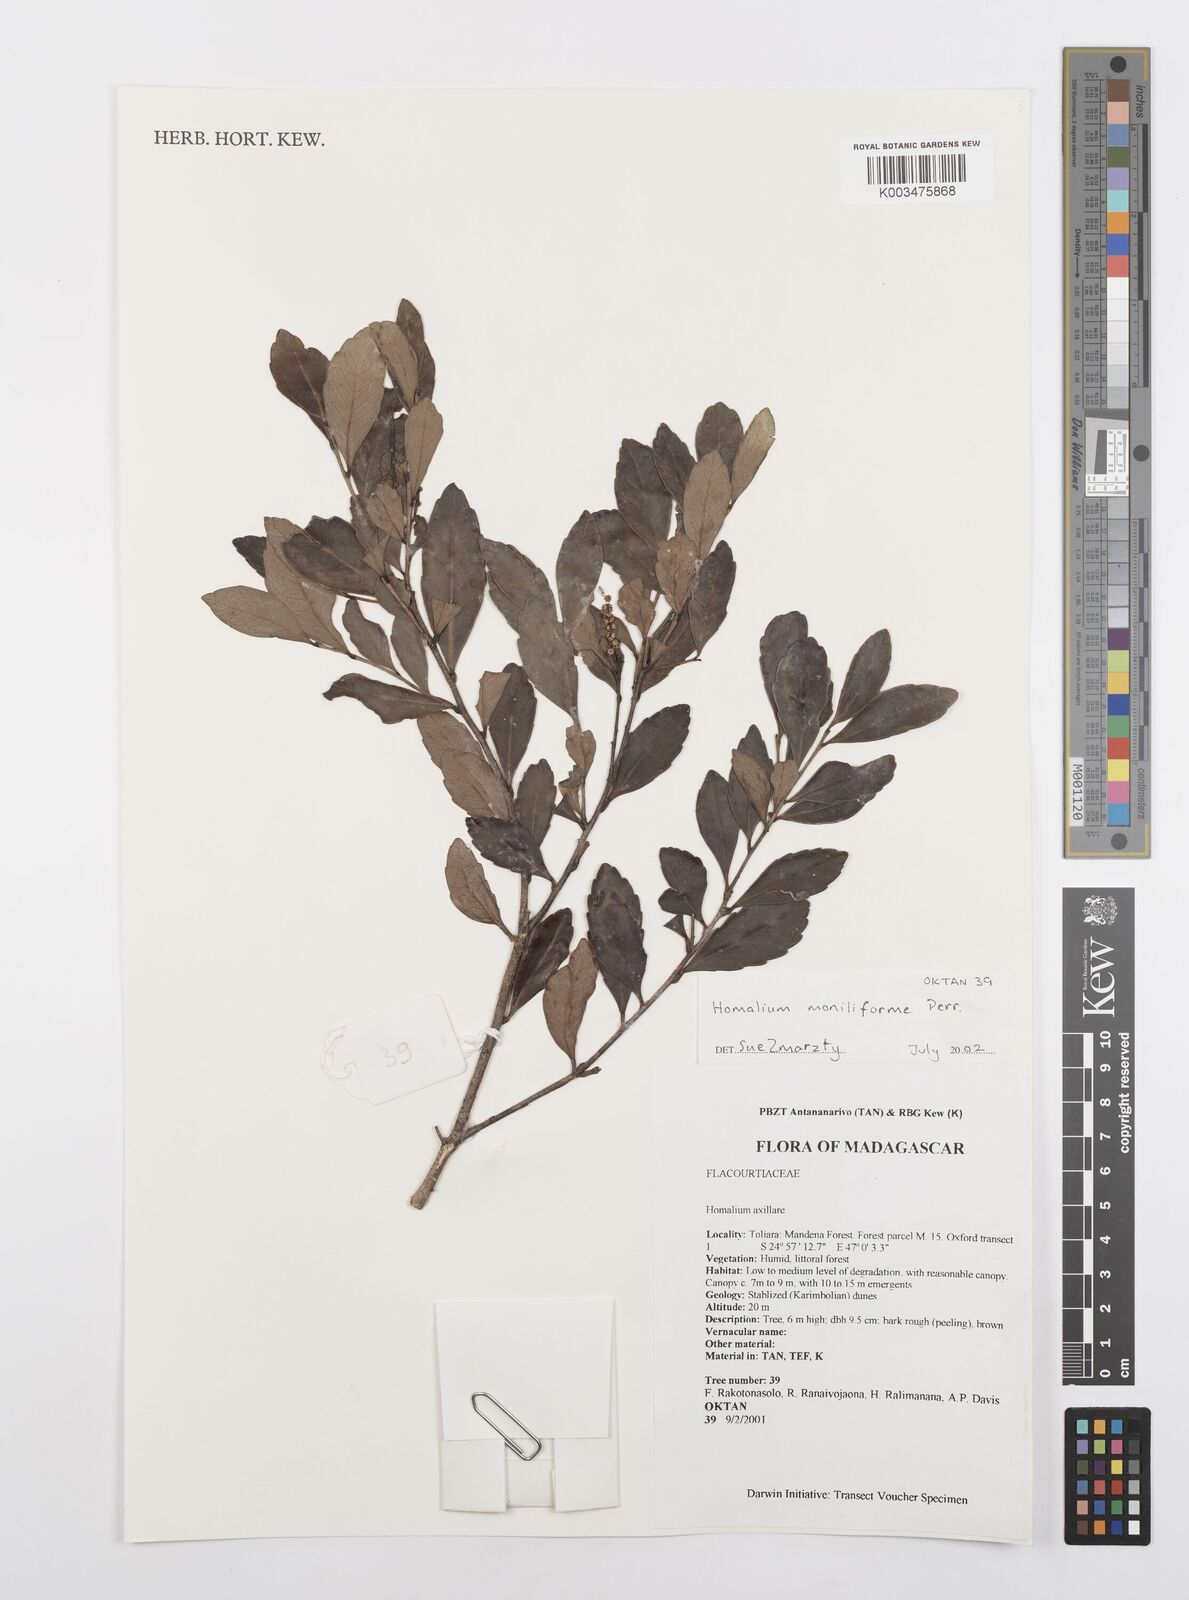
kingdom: Plantae
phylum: Tracheophyta
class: Magnoliopsida
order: Malpighiales
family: Salicaceae
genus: Homalium
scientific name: Homalium moniliforme
